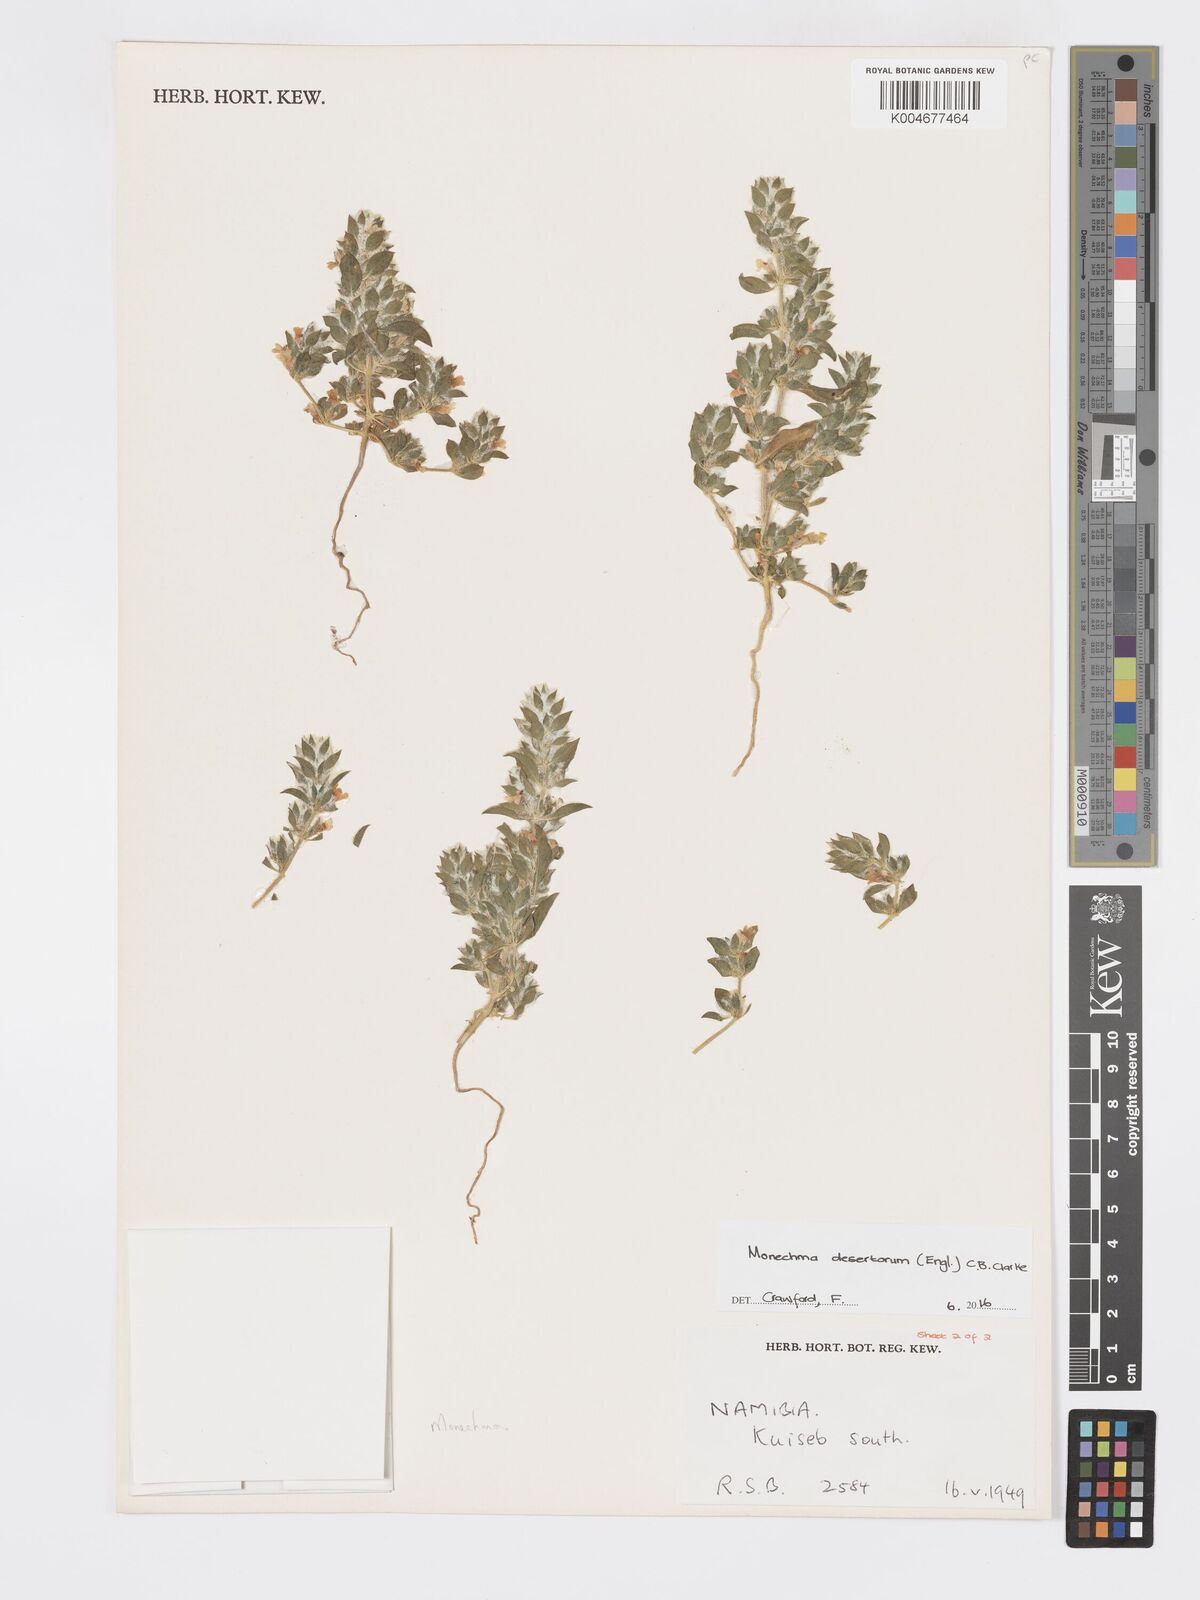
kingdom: Plantae
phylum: Tracheophyta
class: Magnoliopsida
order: Lamiales
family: Acanthaceae
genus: Pogonospermum
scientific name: Pogonospermum
